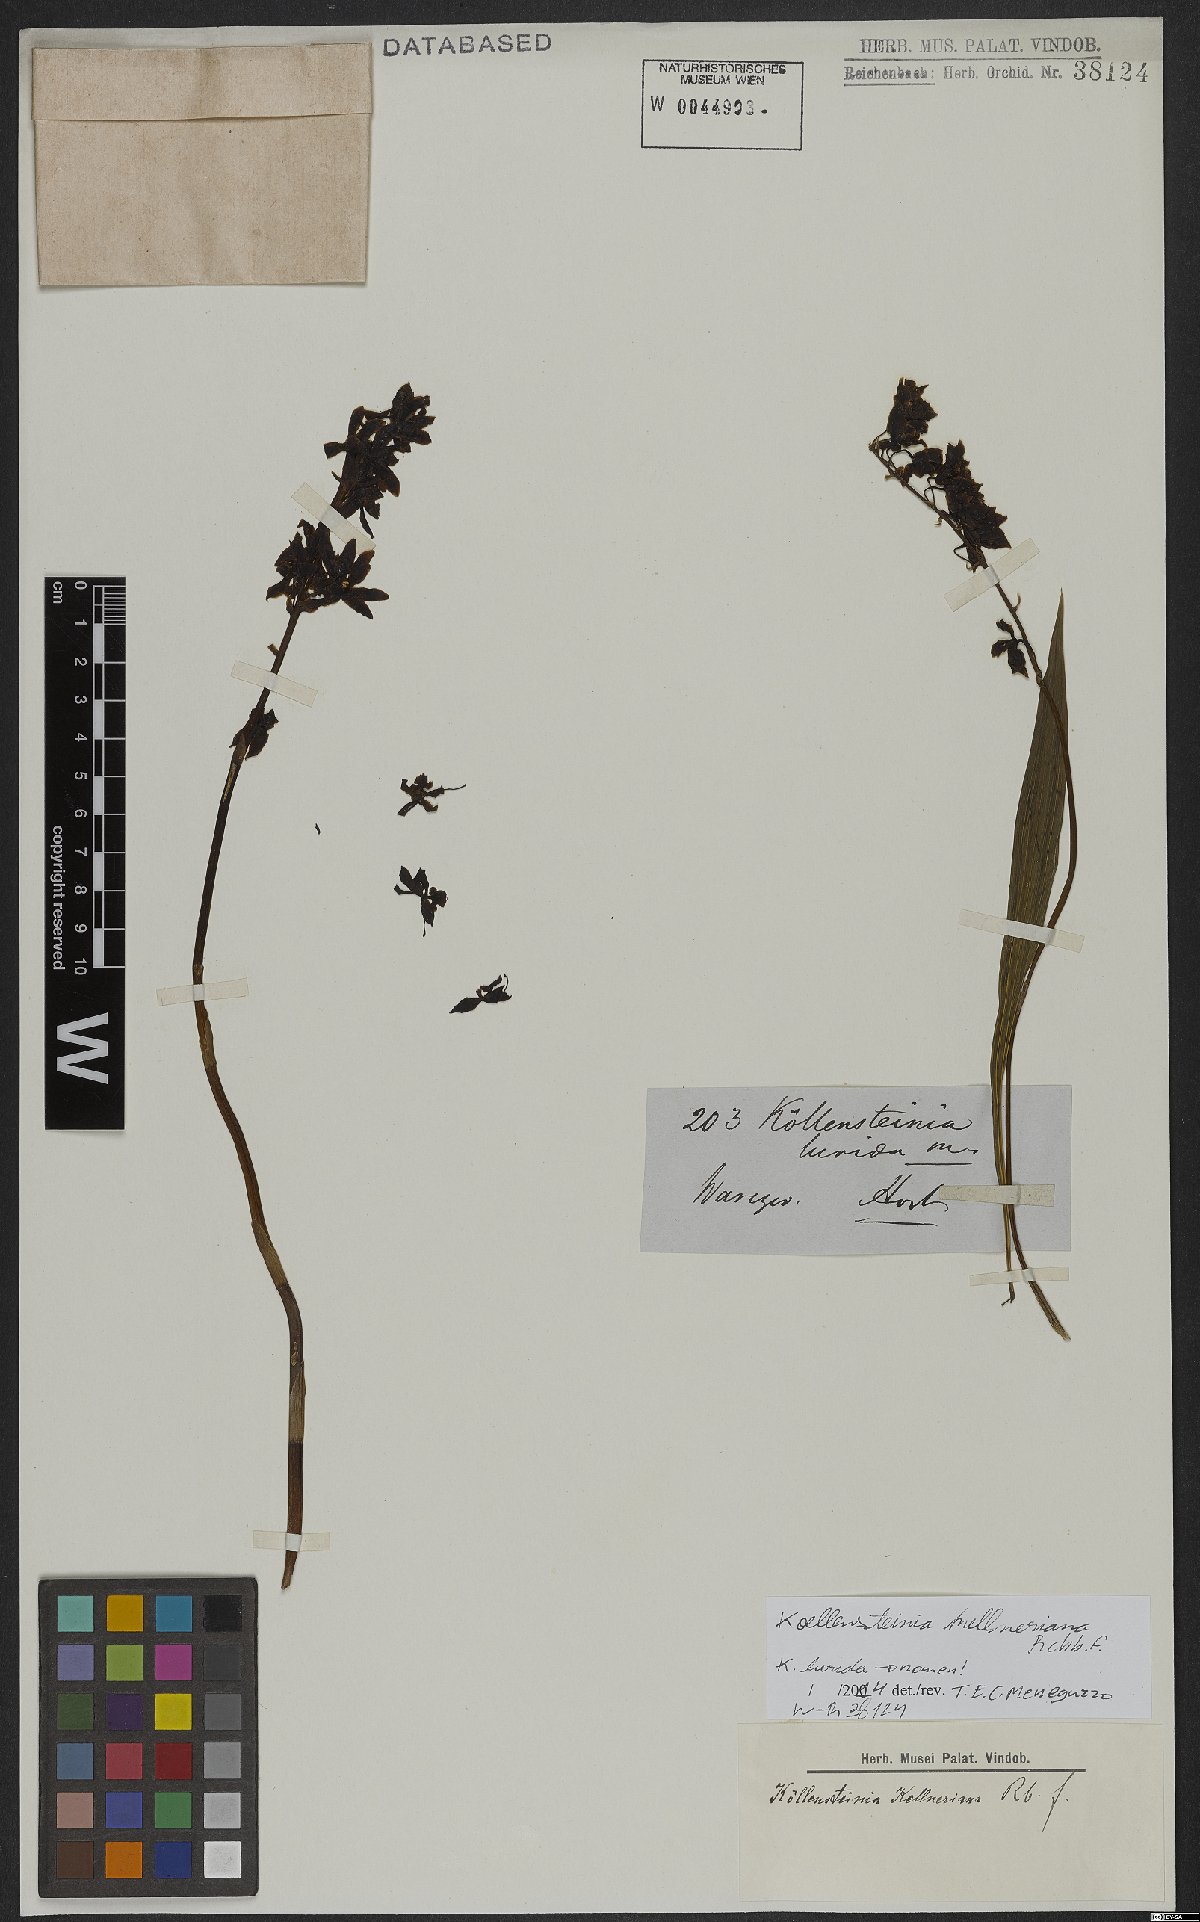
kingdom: Plantae
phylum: Tracheophyta
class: Liliopsida
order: Asparagales
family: Orchidaceae
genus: Koellensteinia
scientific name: Koellensteinia kellneriana
